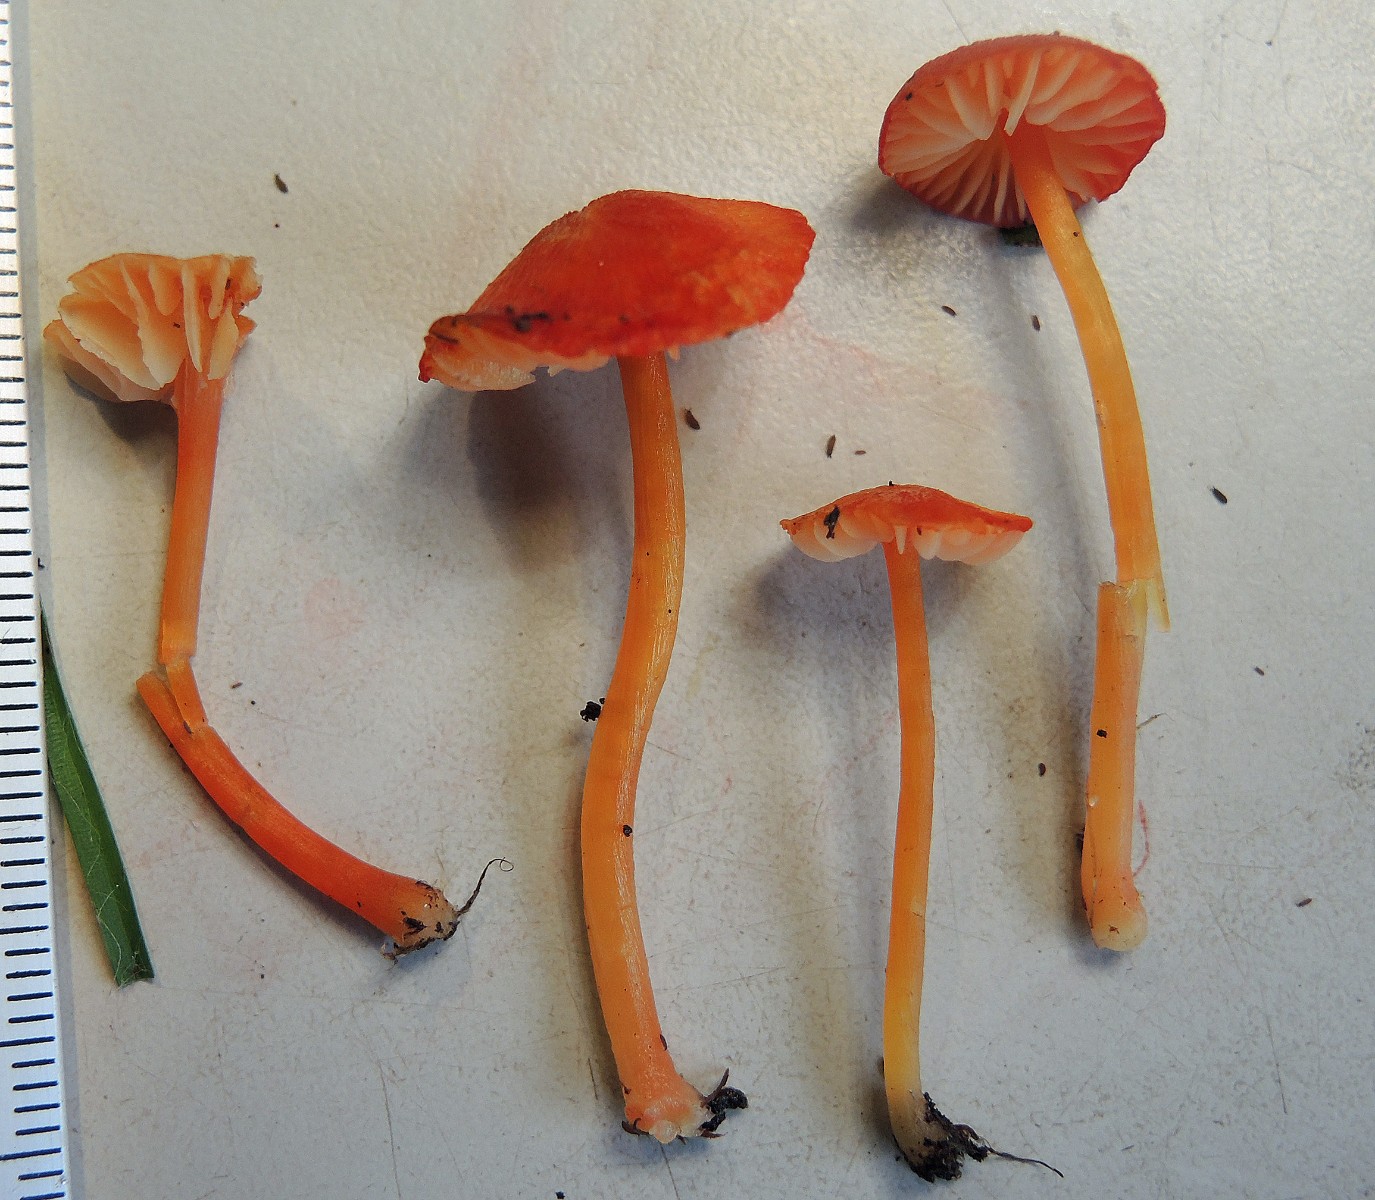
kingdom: Fungi
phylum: Basidiomycota
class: Agaricomycetes
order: Agaricales
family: Hygrophoraceae
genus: Hygrocybe
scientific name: Hygrocybe helobia
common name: hvidløgs-vokshat
